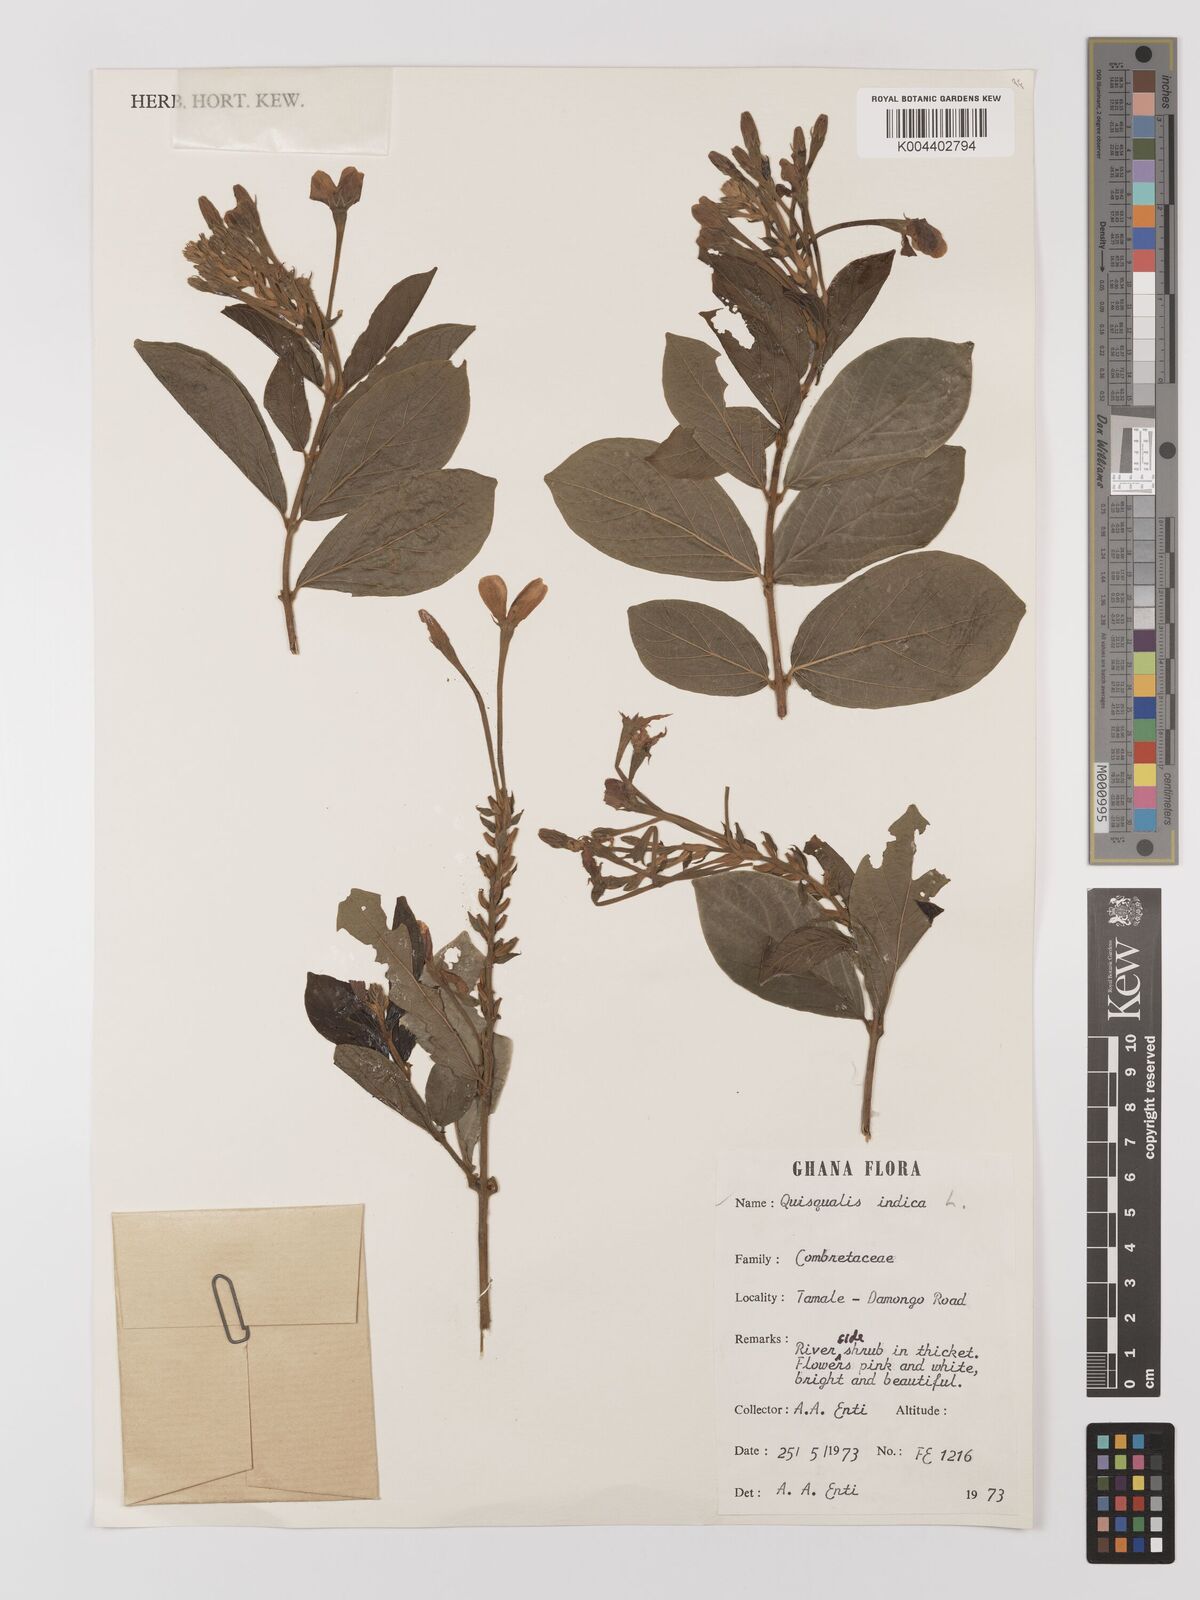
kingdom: Plantae
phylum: Tracheophyta
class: Magnoliopsida
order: Myrtales
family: Combretaceae
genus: Combretum
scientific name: Combretum
